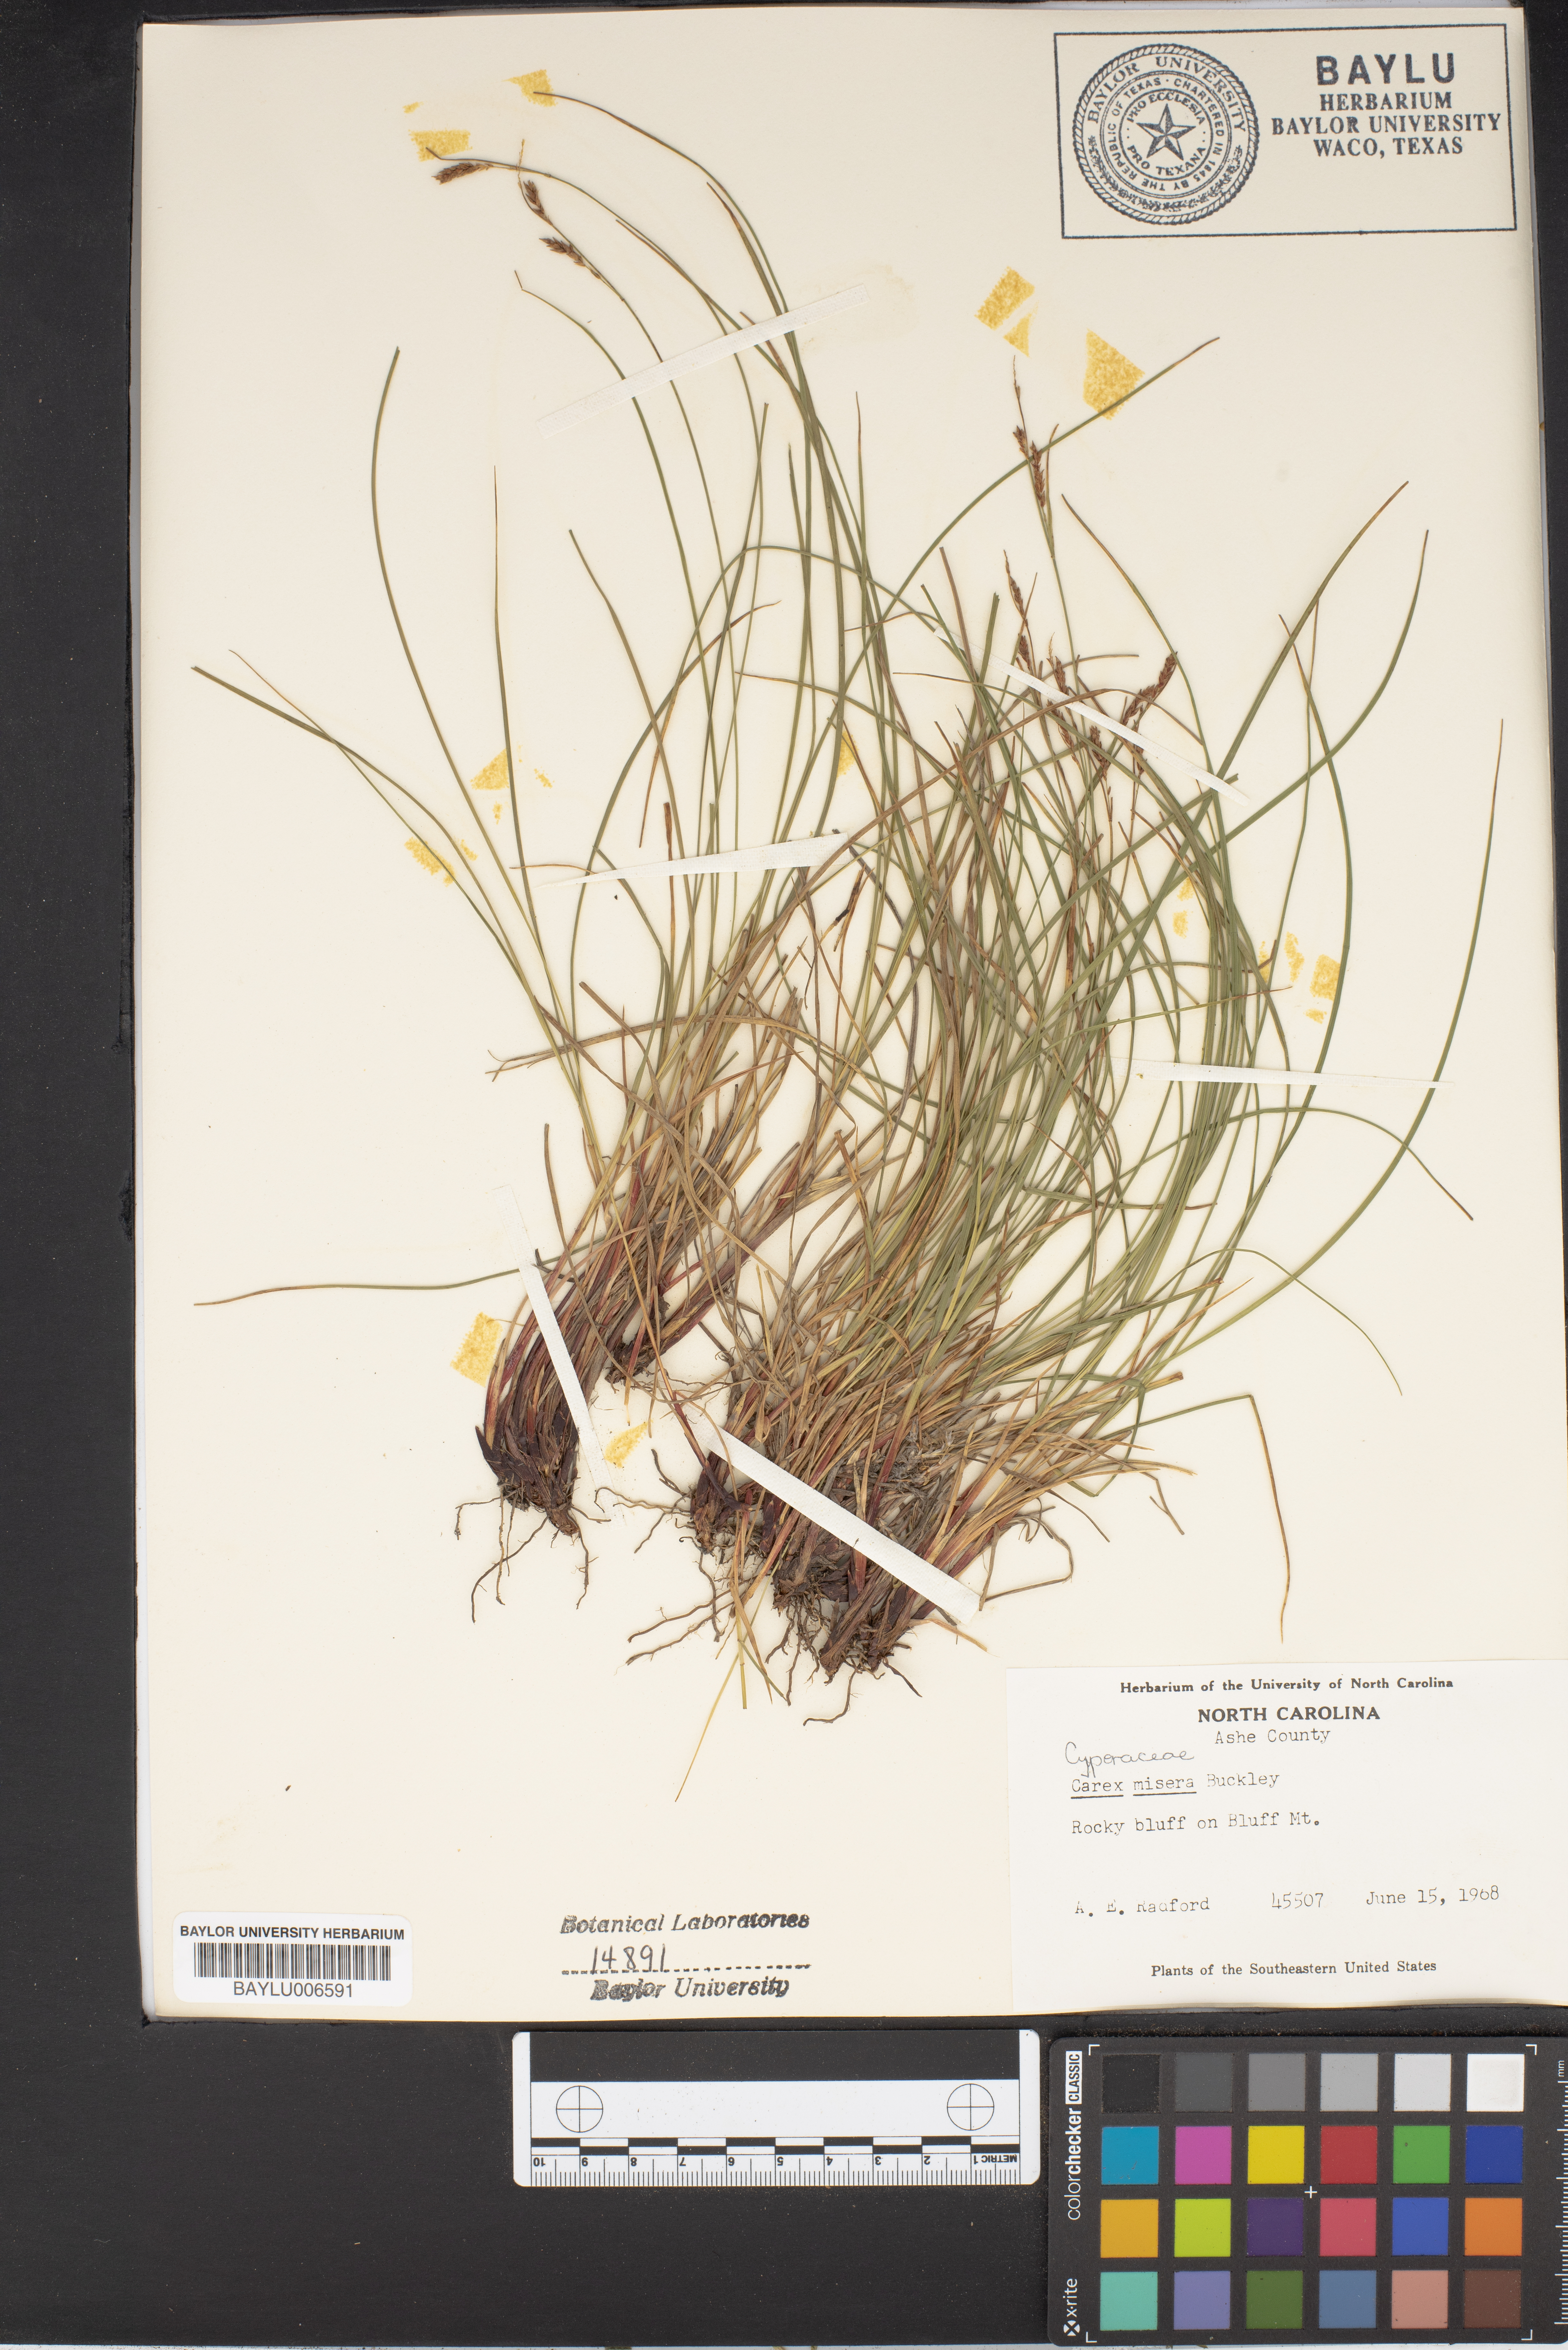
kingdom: Plantae
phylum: Tracheophyta
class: Liliopsida
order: Poales
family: Cyperaceae
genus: Carex
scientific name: Carex misera
